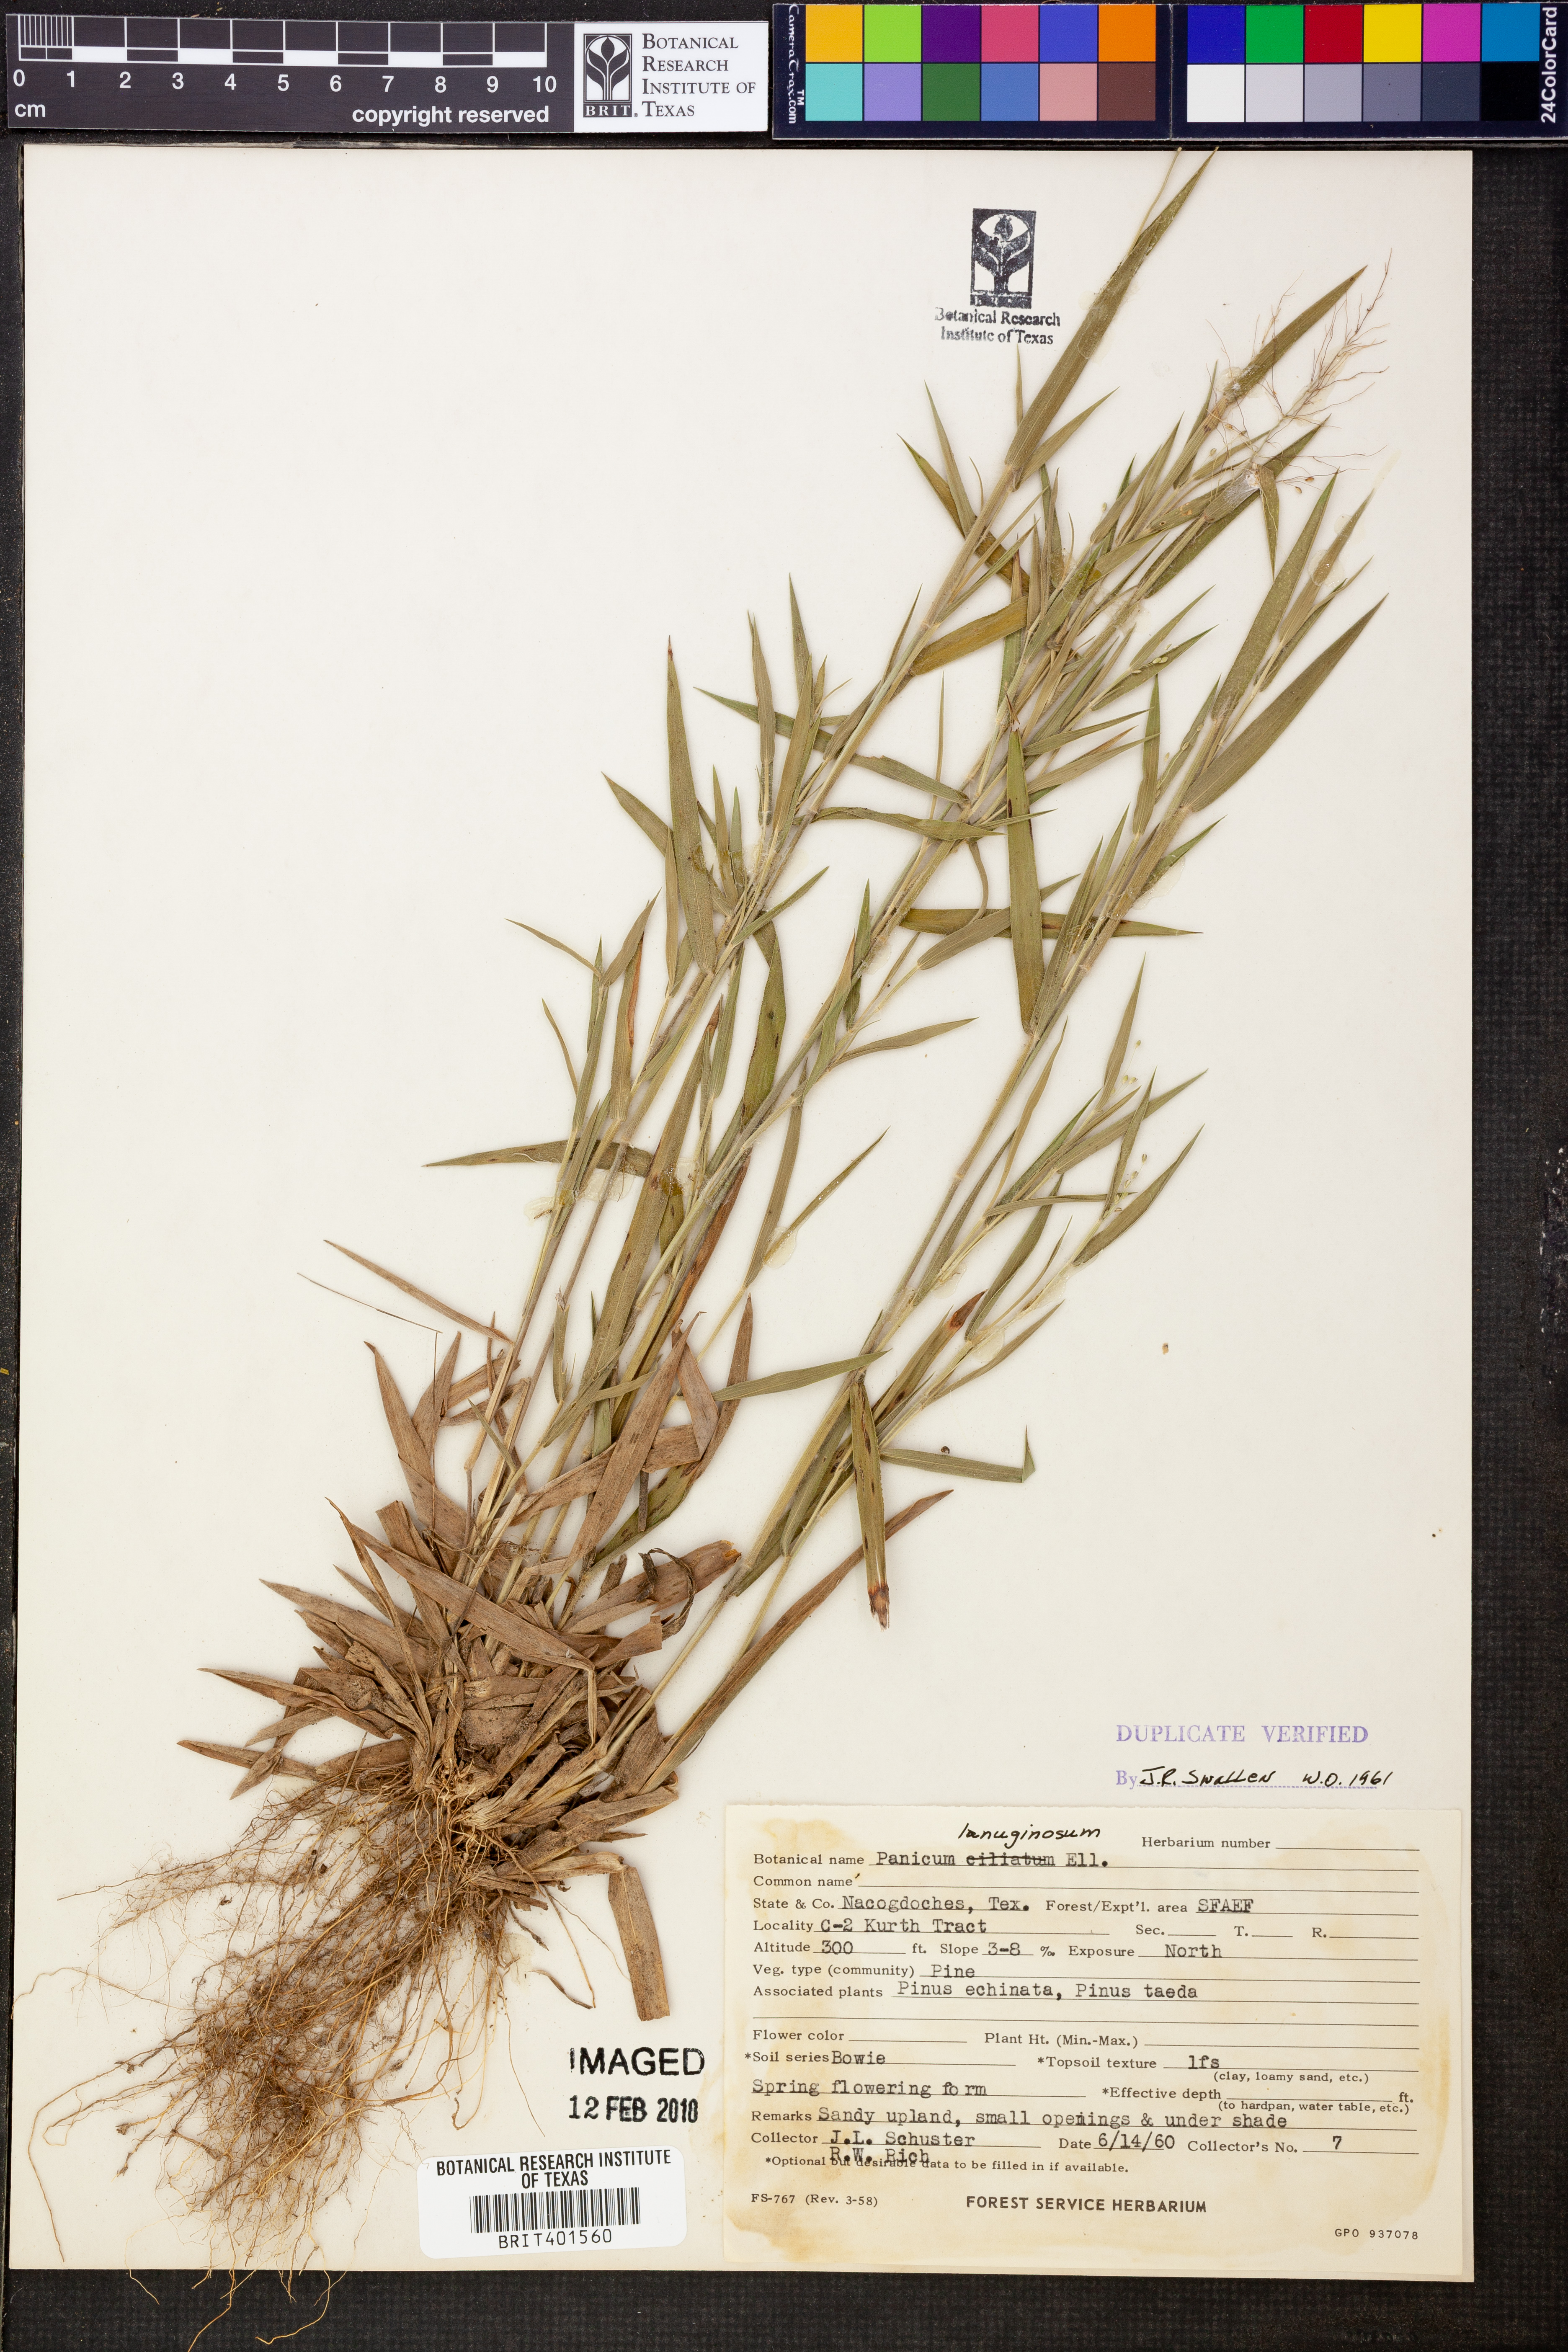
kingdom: Plantae
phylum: Tracheophyta
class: Liliopsida
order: Poales
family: Poaceae
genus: Dichanthelium
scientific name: Dichanthelium lanuginosum
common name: Woolly panicgrass
